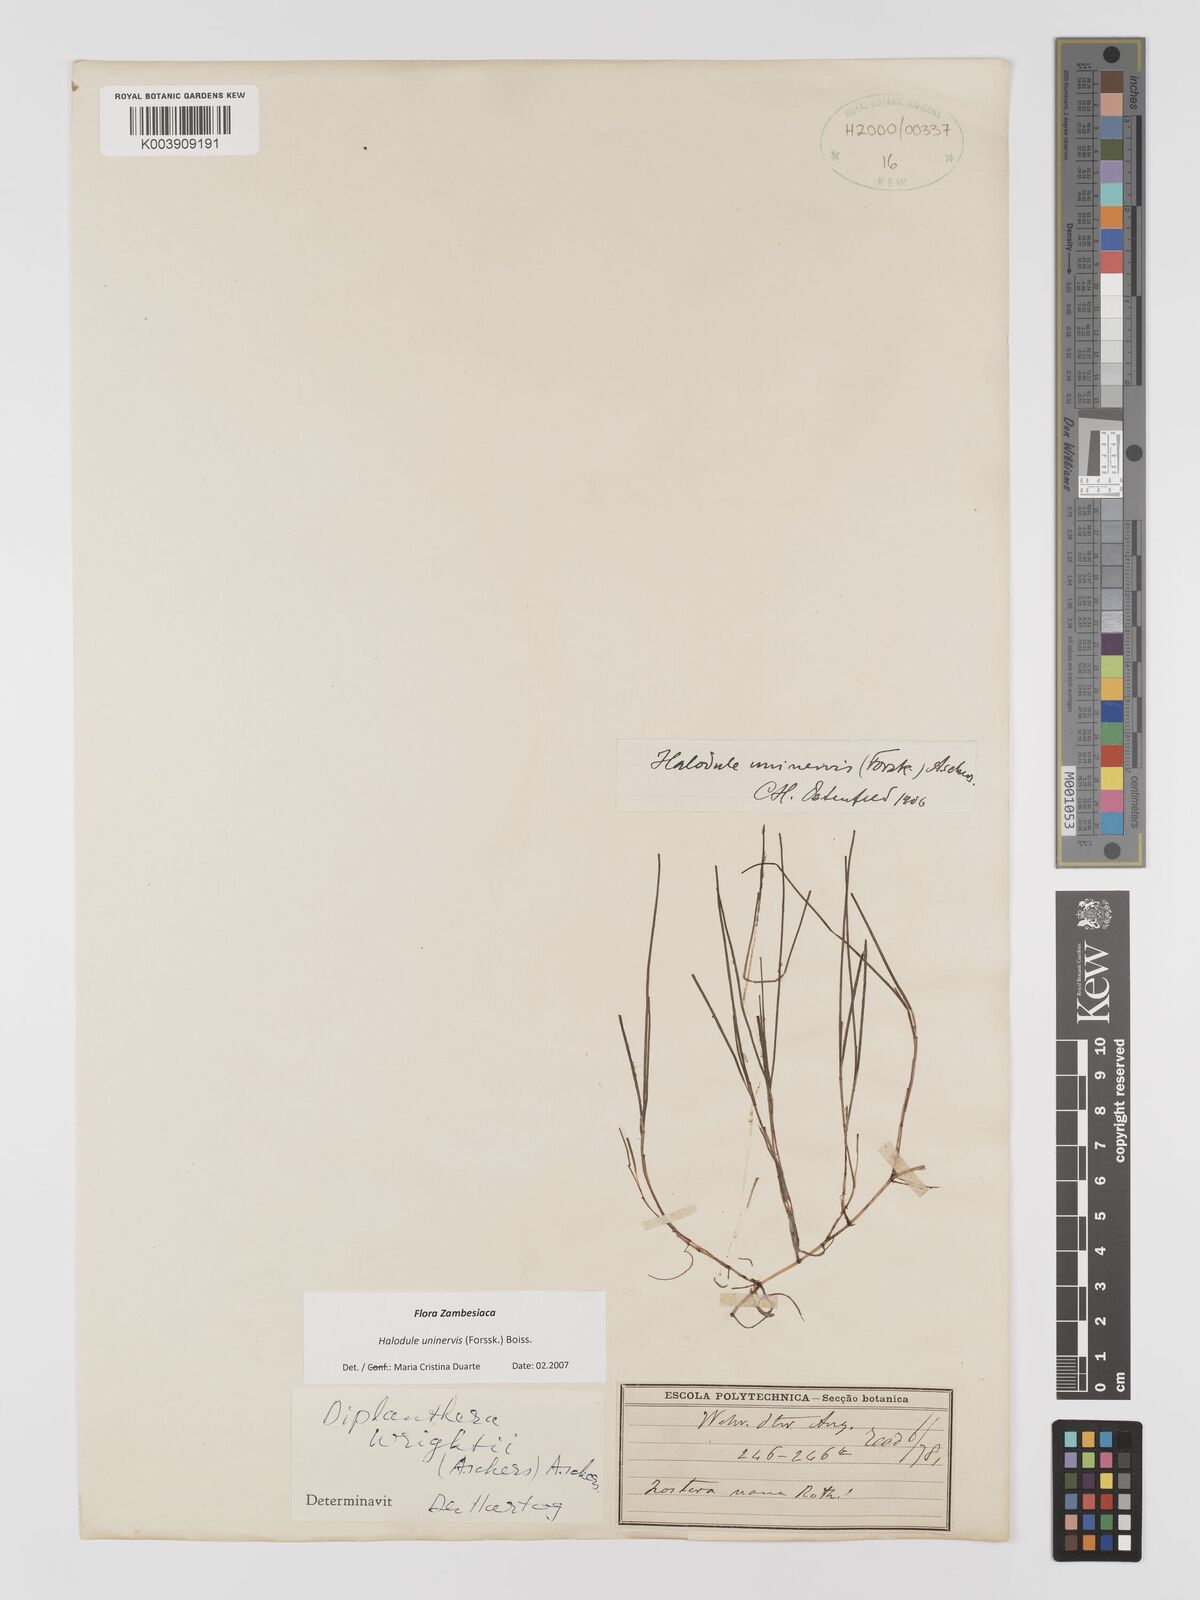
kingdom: Plantae
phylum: Tracheophyta
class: Liliopsida
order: Alismatales
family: Cymodoceaceae
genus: Halodule
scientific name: Halodule uninervis
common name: Narrowleaf seagrass
